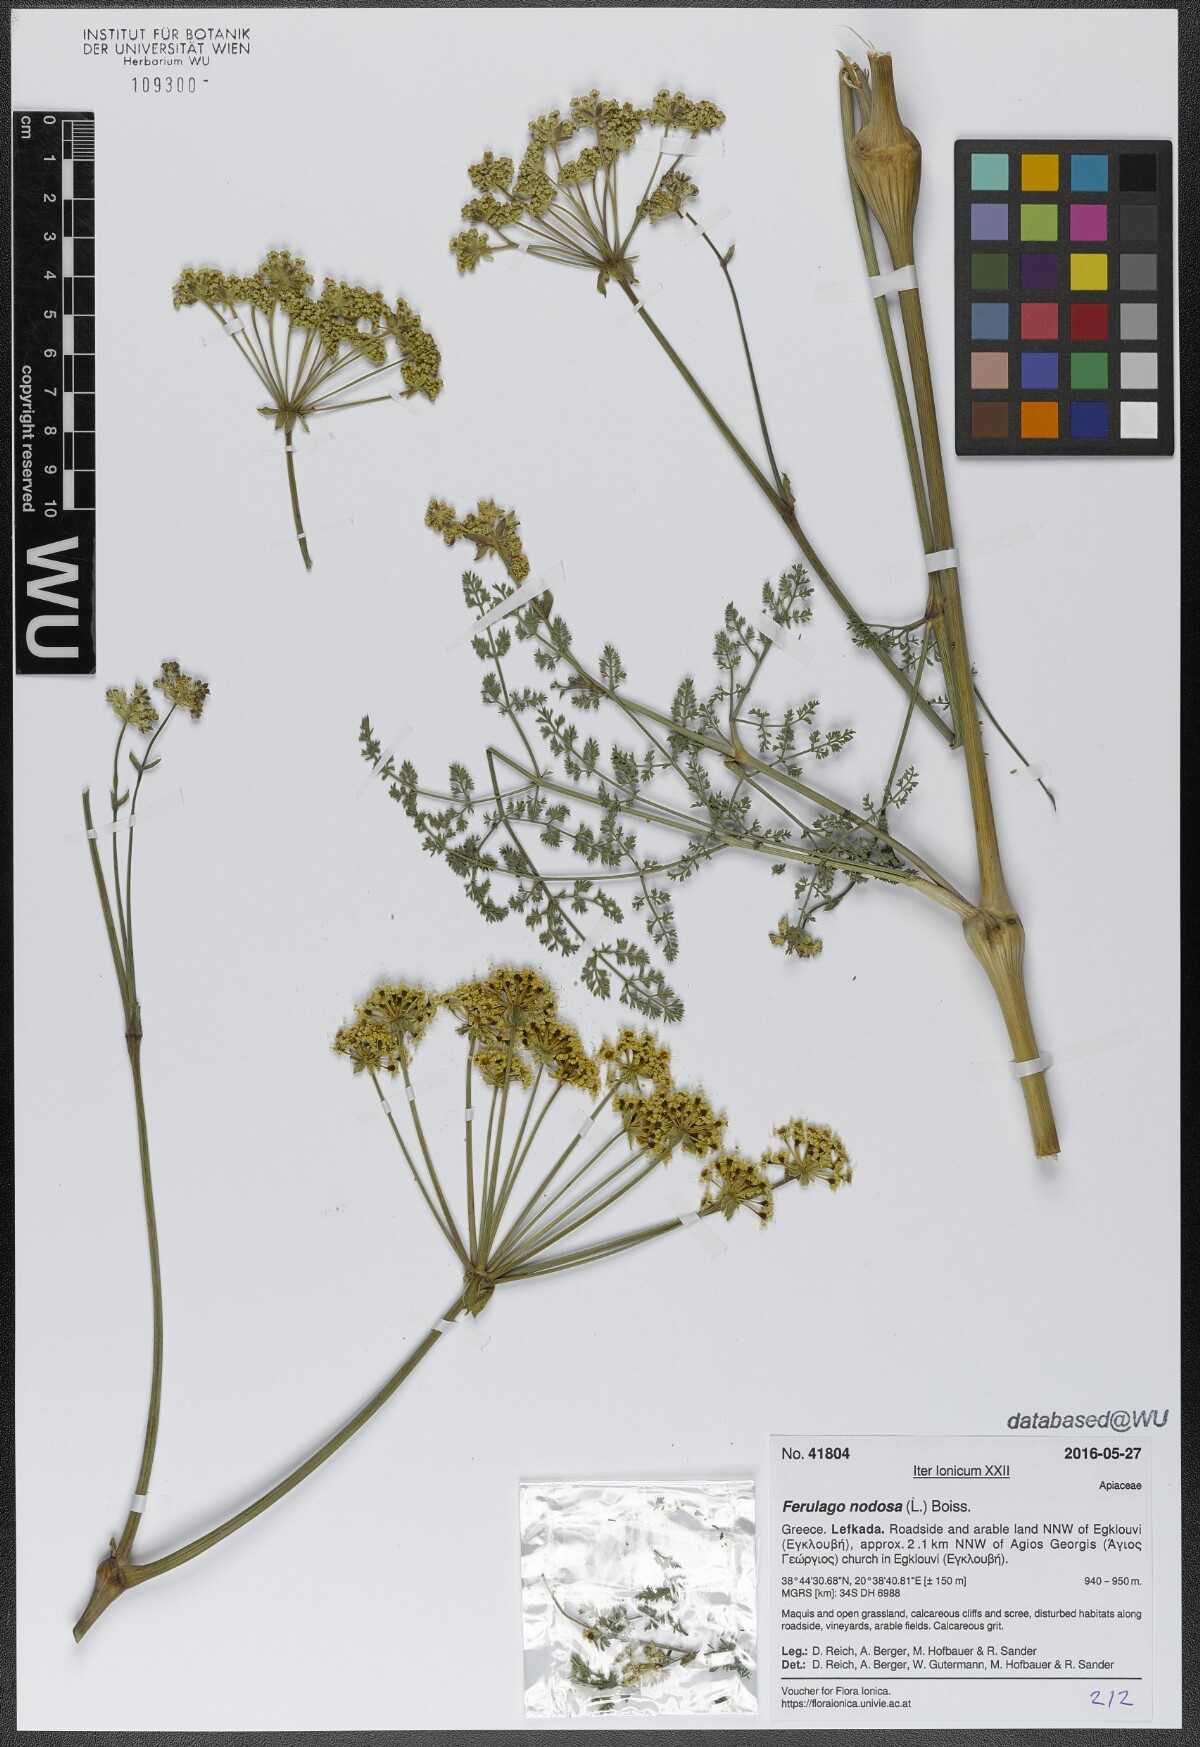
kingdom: Plantae
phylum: Tracheophyta
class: Magnoliopsida
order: Apiales
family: Apiaceae
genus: Ferulago
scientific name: Ferulago nodosa
